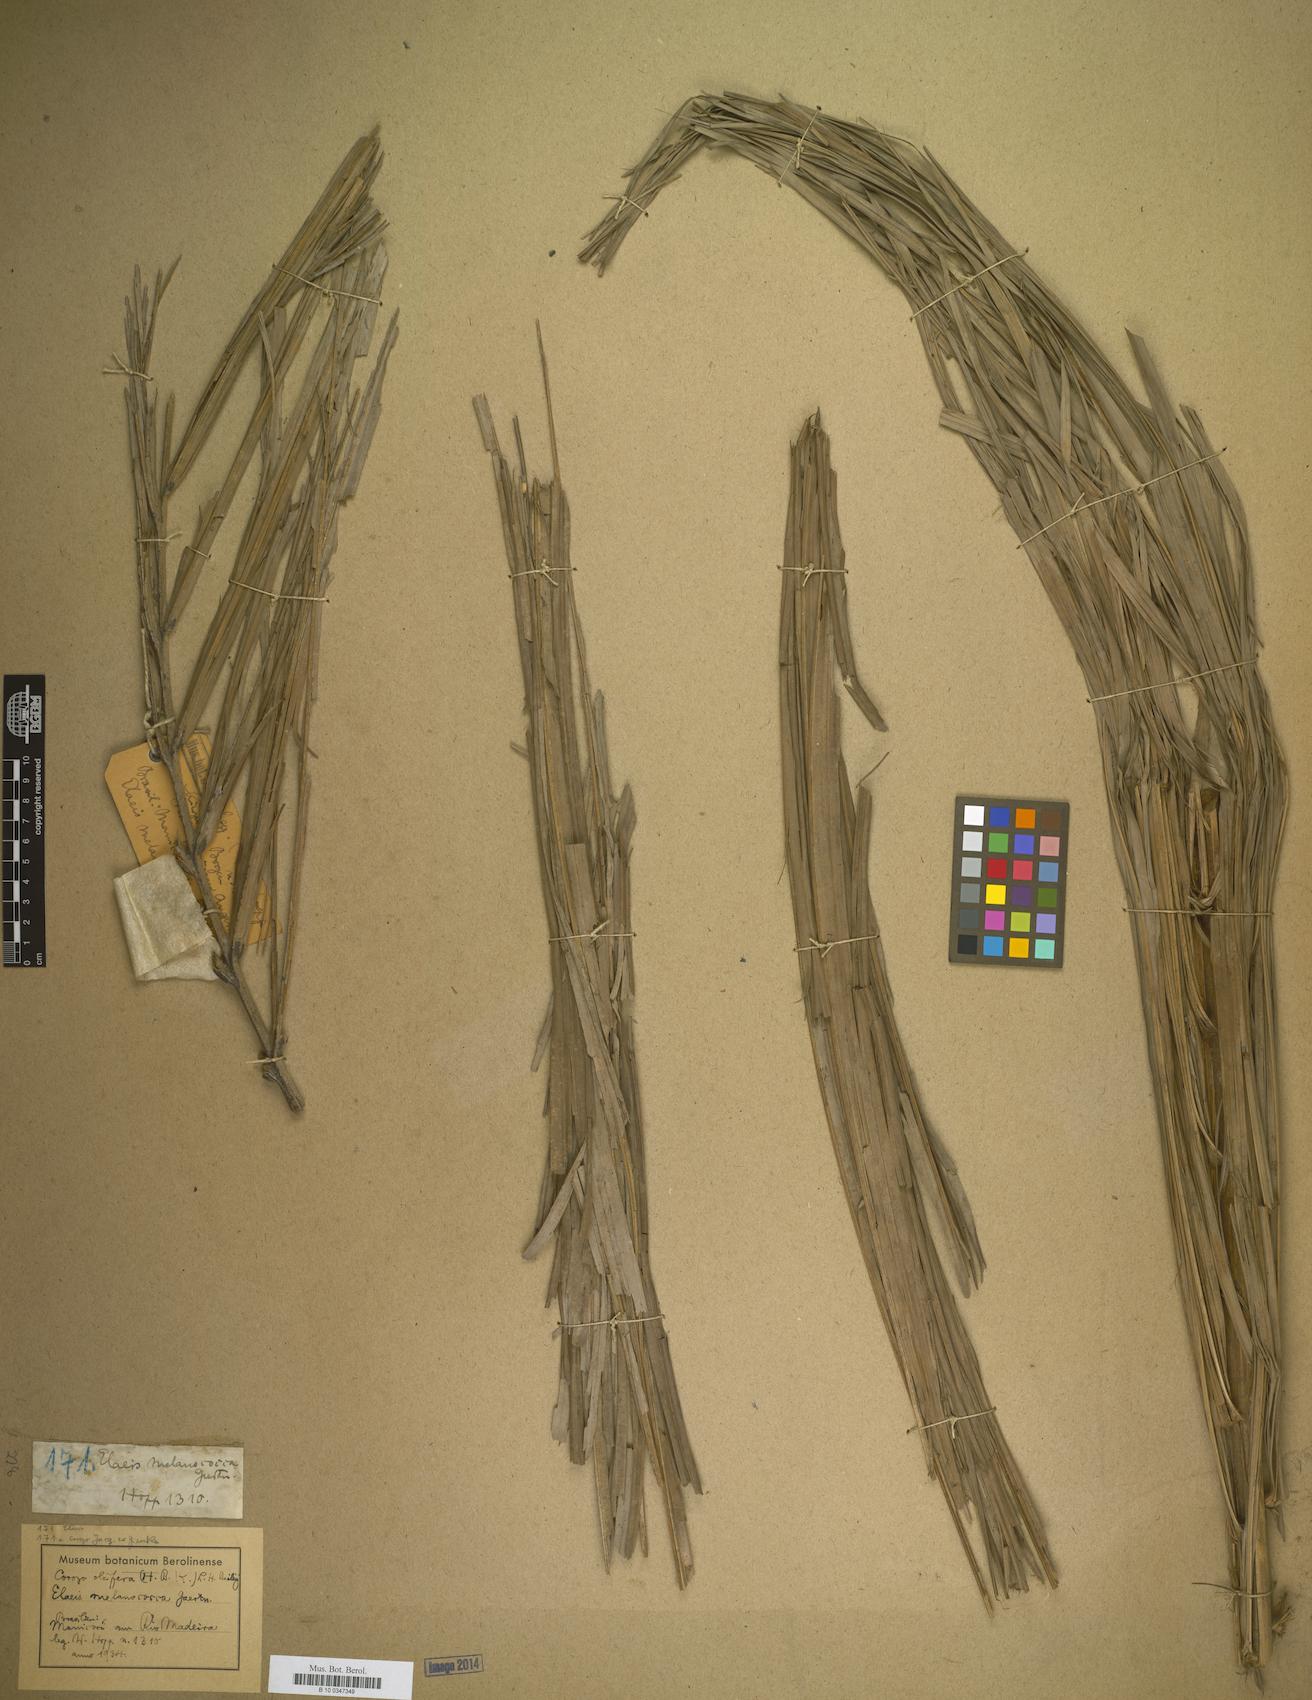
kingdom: Plantae
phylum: Tracheophyta
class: Liliopsida
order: Arecales
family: Arecaceae
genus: Elaeis
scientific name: Elaeis
